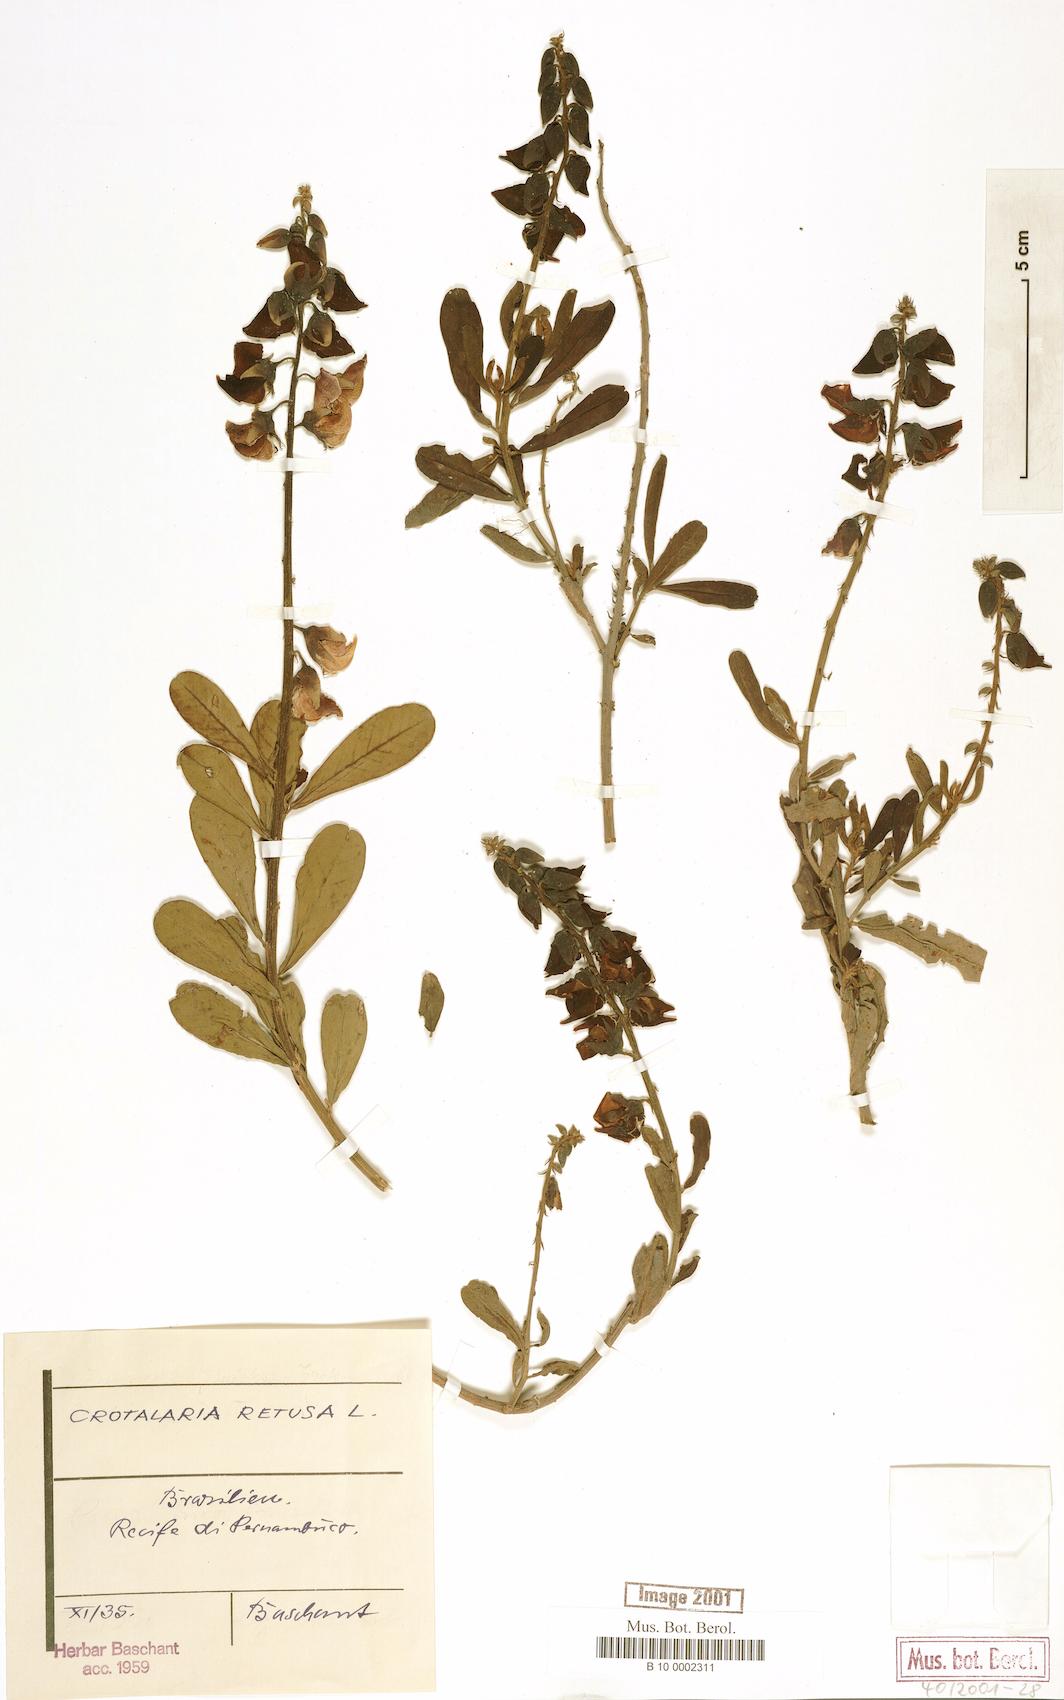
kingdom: Plantae
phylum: Tracheophyta
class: Magnoliopsida
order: Fabales
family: Fabaceae
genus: Crotalaria
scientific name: Crotalaria retusa
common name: Rattleweed
